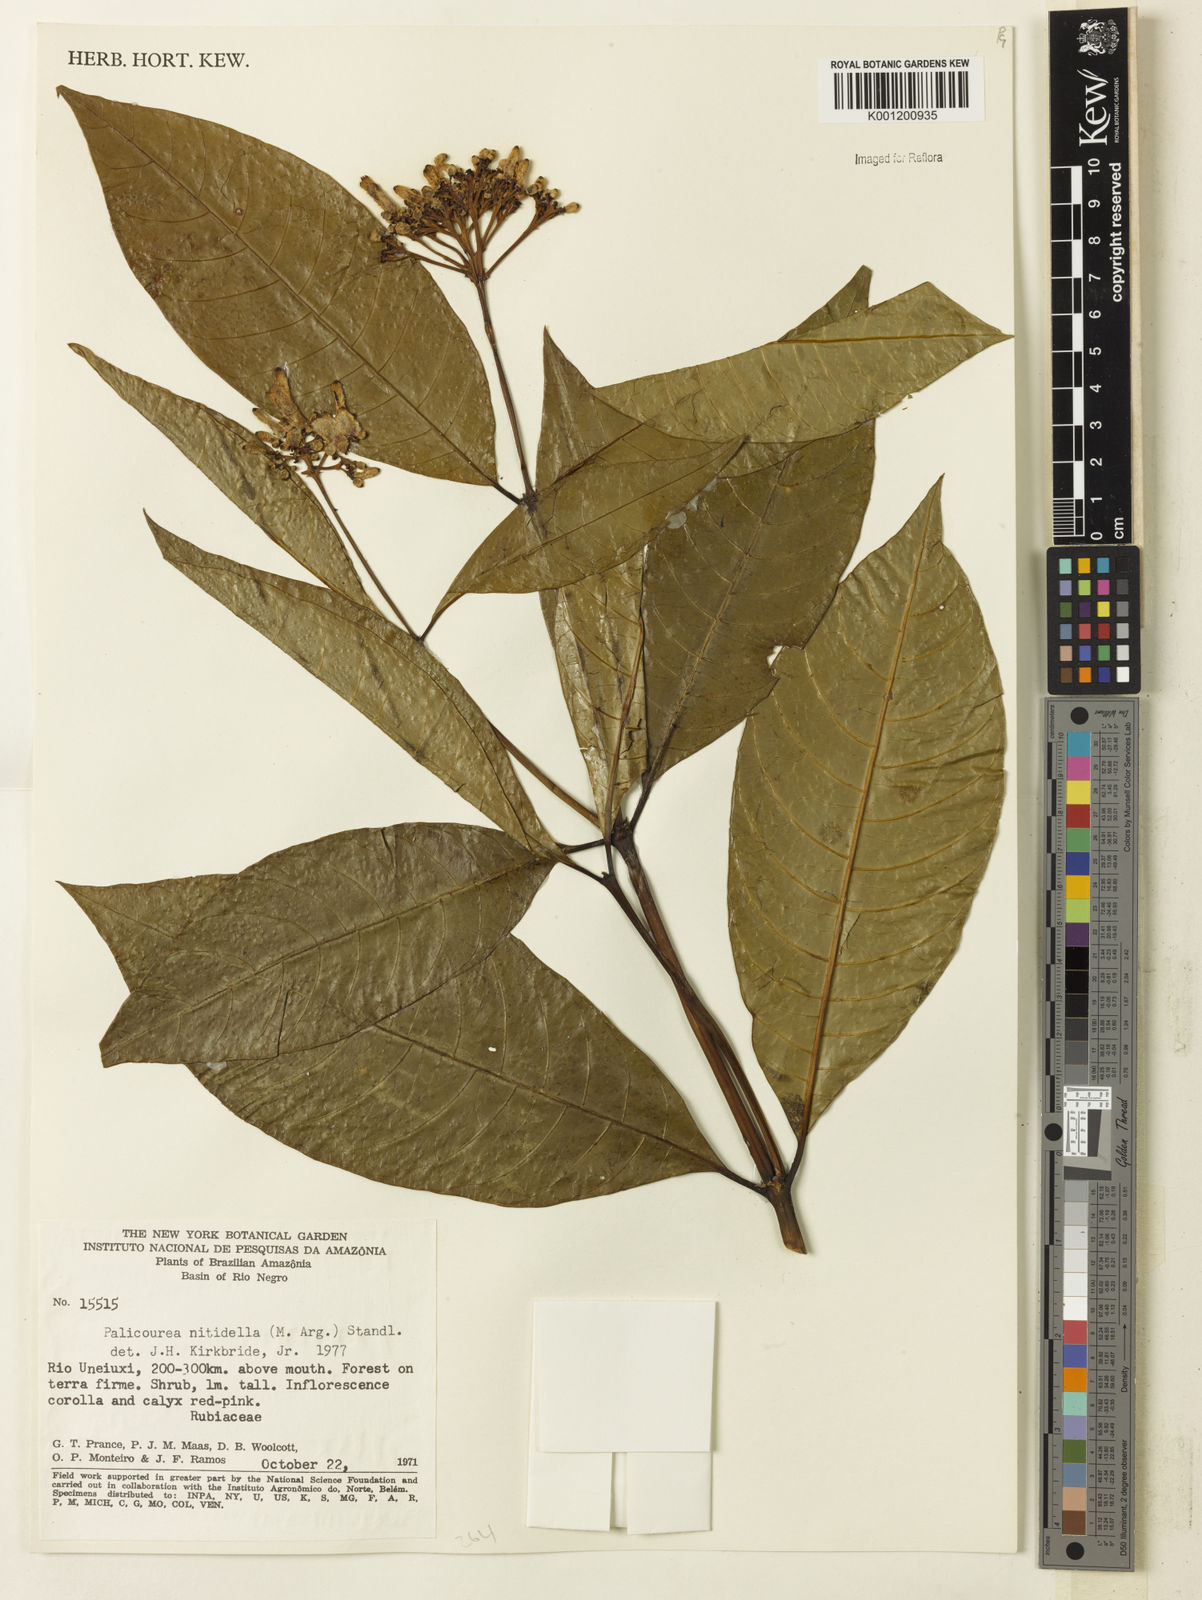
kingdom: Plantae
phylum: Tracheophyta
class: Magnoliopsida
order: Gentianales
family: Rubiaceae
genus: Palicourea
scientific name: Palicourea
